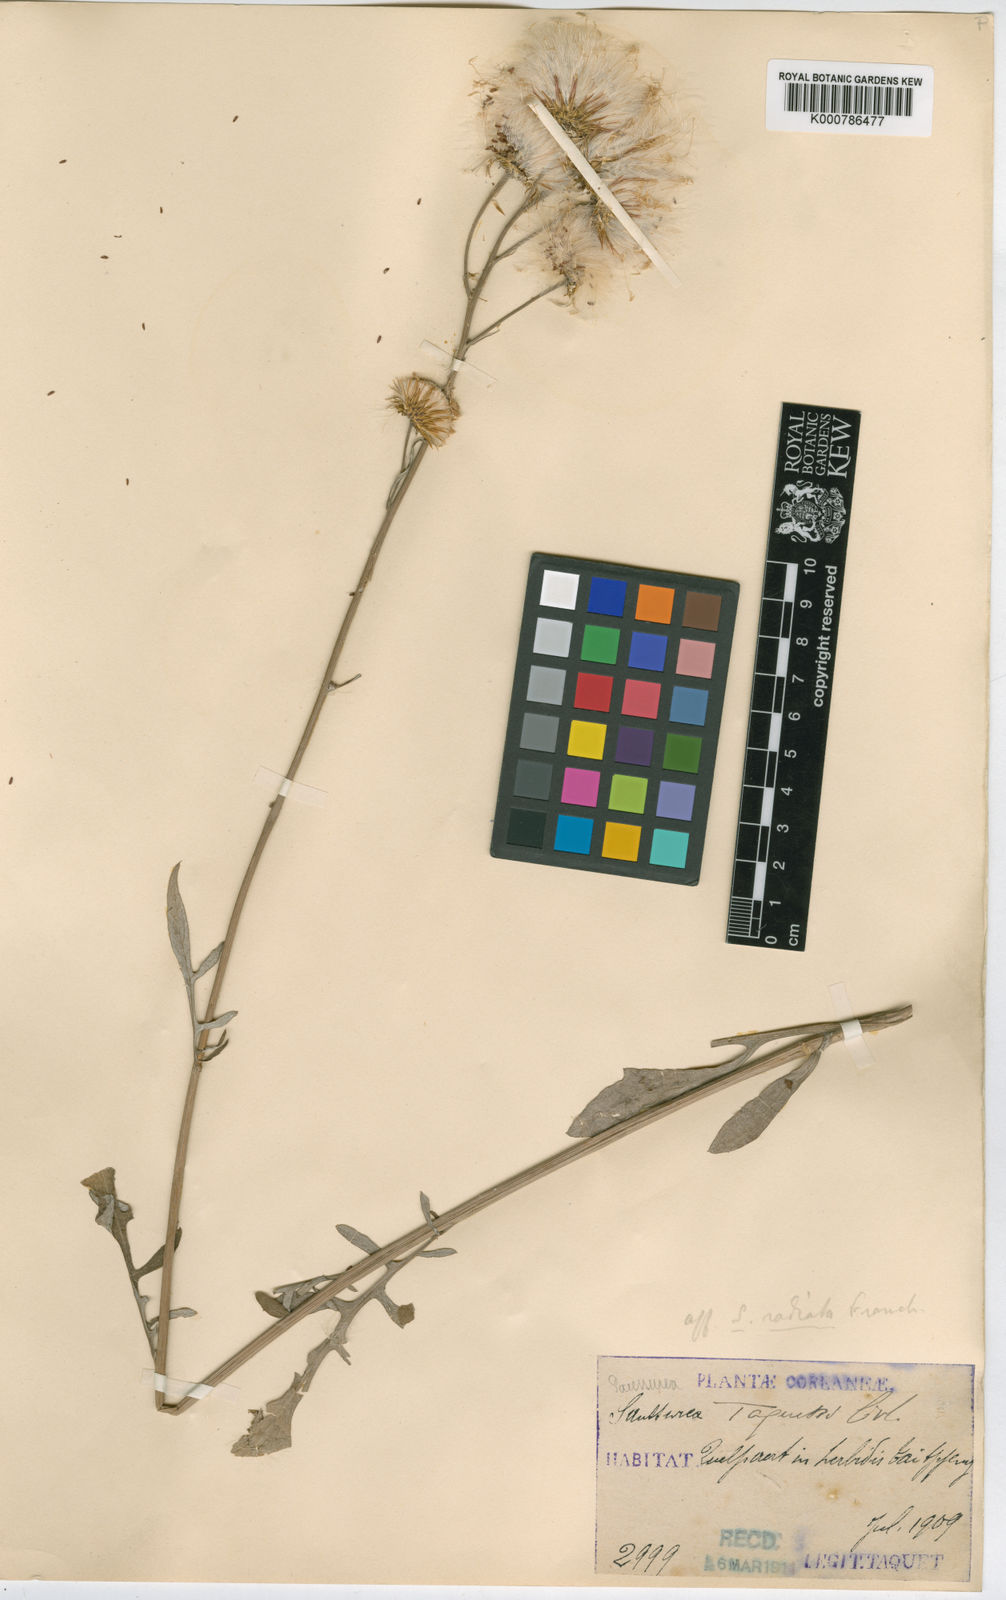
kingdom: Plantae
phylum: Tracheophyta
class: Magnoliopsida
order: Asterales
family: Asteraceae
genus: Saussurea
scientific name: Saussurea lyrata
